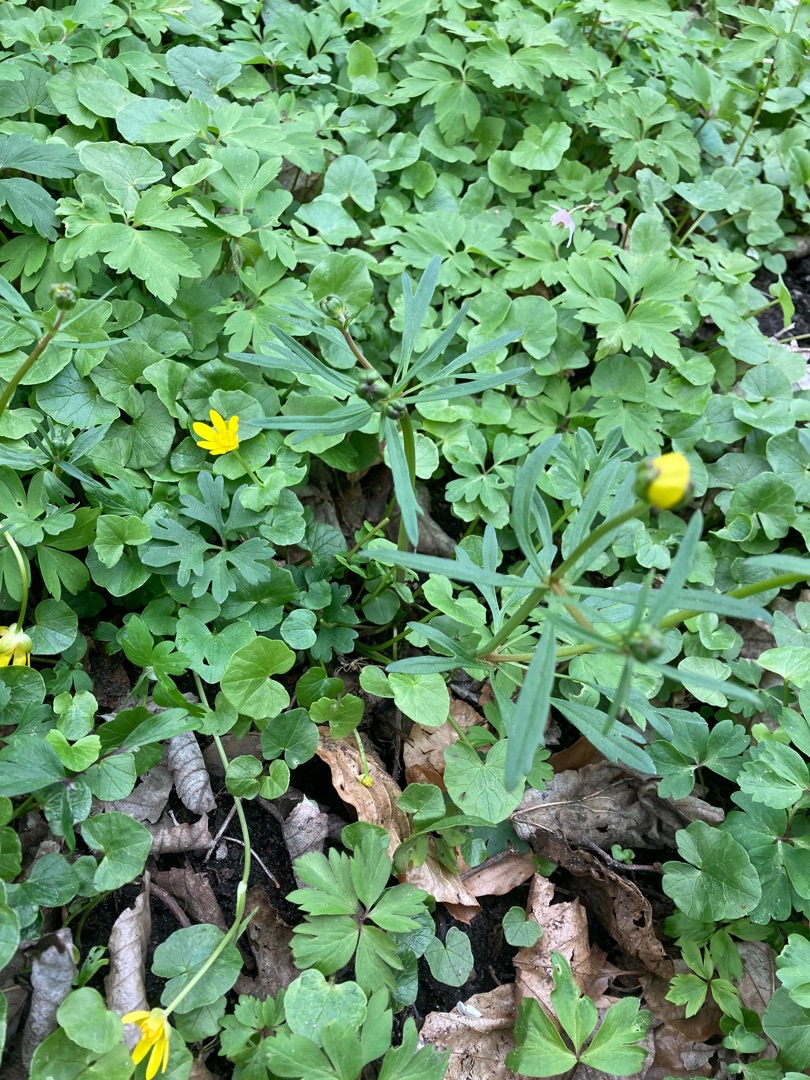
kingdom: Plantae
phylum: Tracheophyta
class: Magnoliopsida
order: Ranunculales
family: Ranunculaceae
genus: Ranunculus
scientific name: Ranunculus auricomus
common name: Nyrebladet ranunkel
